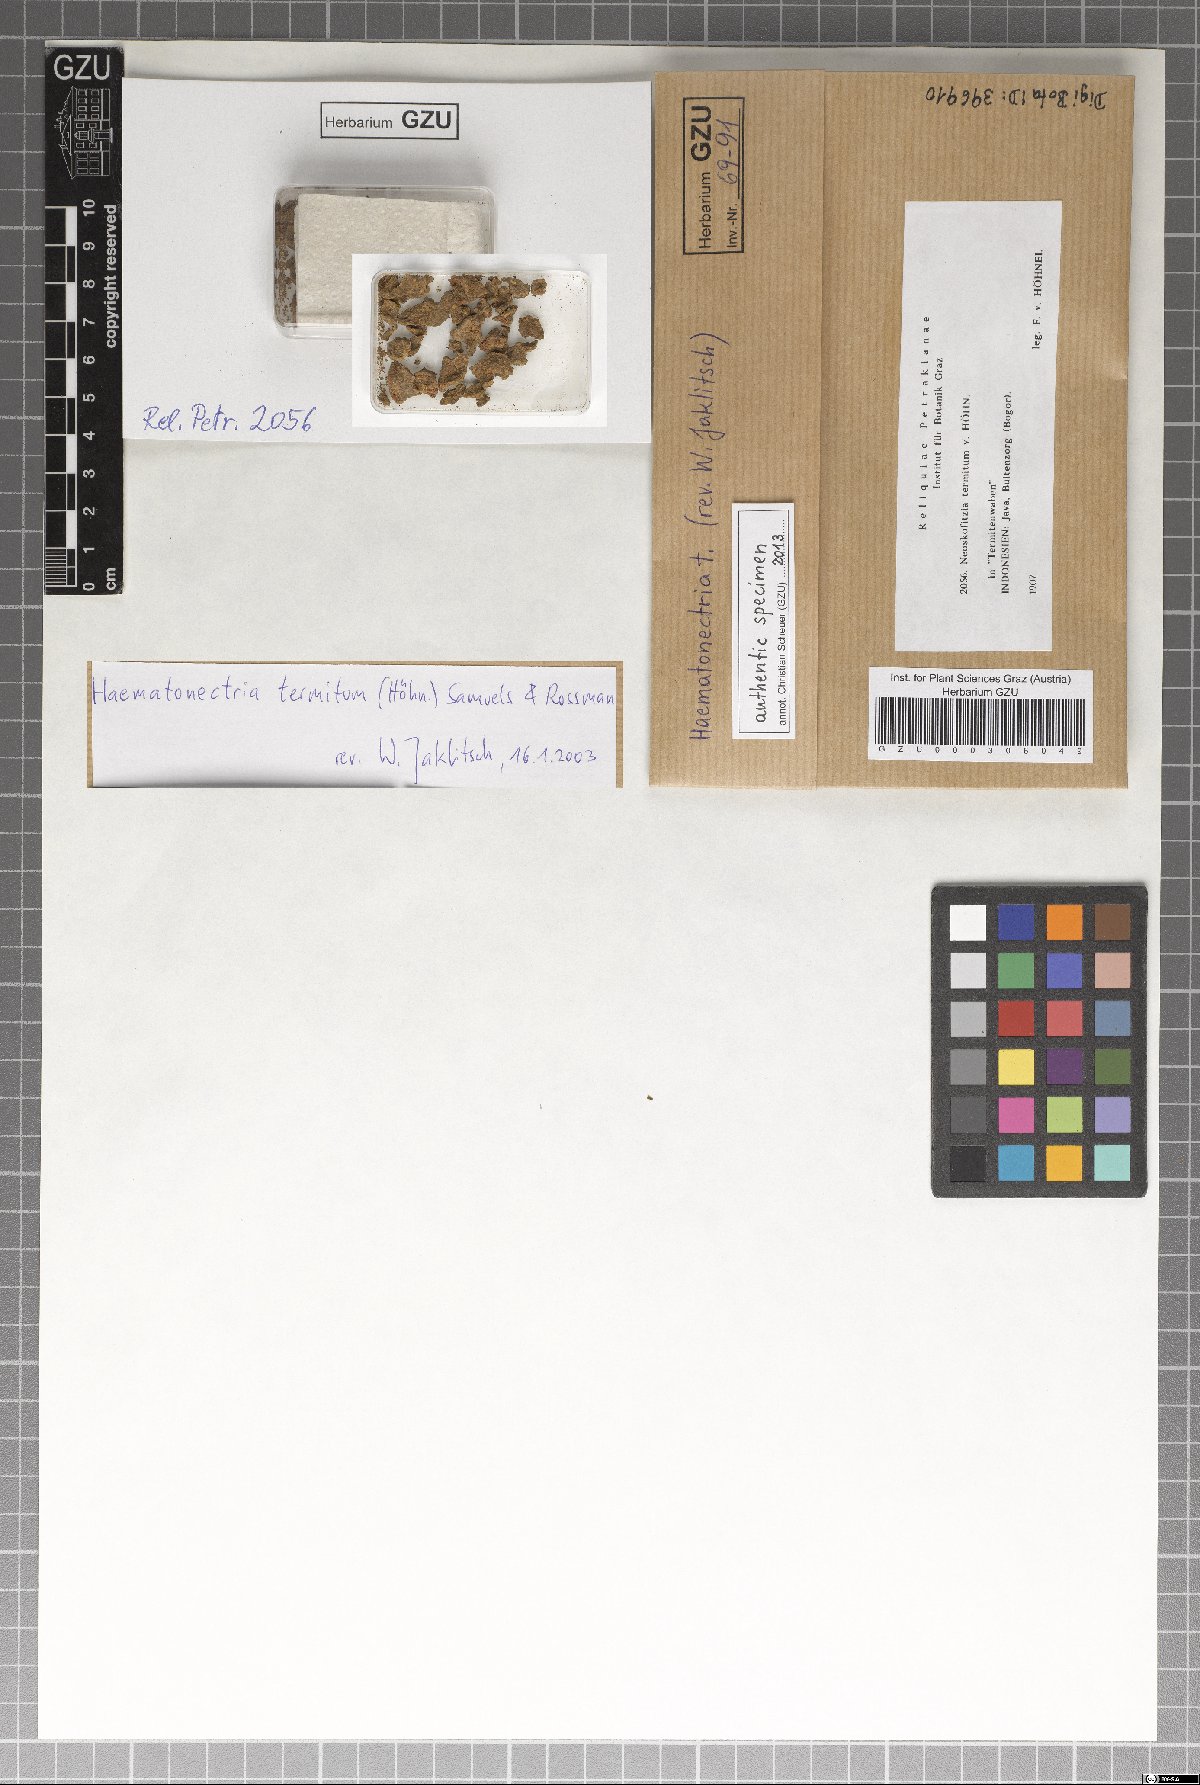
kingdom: Fungi
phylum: Ascomycota
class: Sordariomycetes
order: Hypocreales
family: Nectriaceae
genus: Haematonectria
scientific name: Haematonectria termitum
